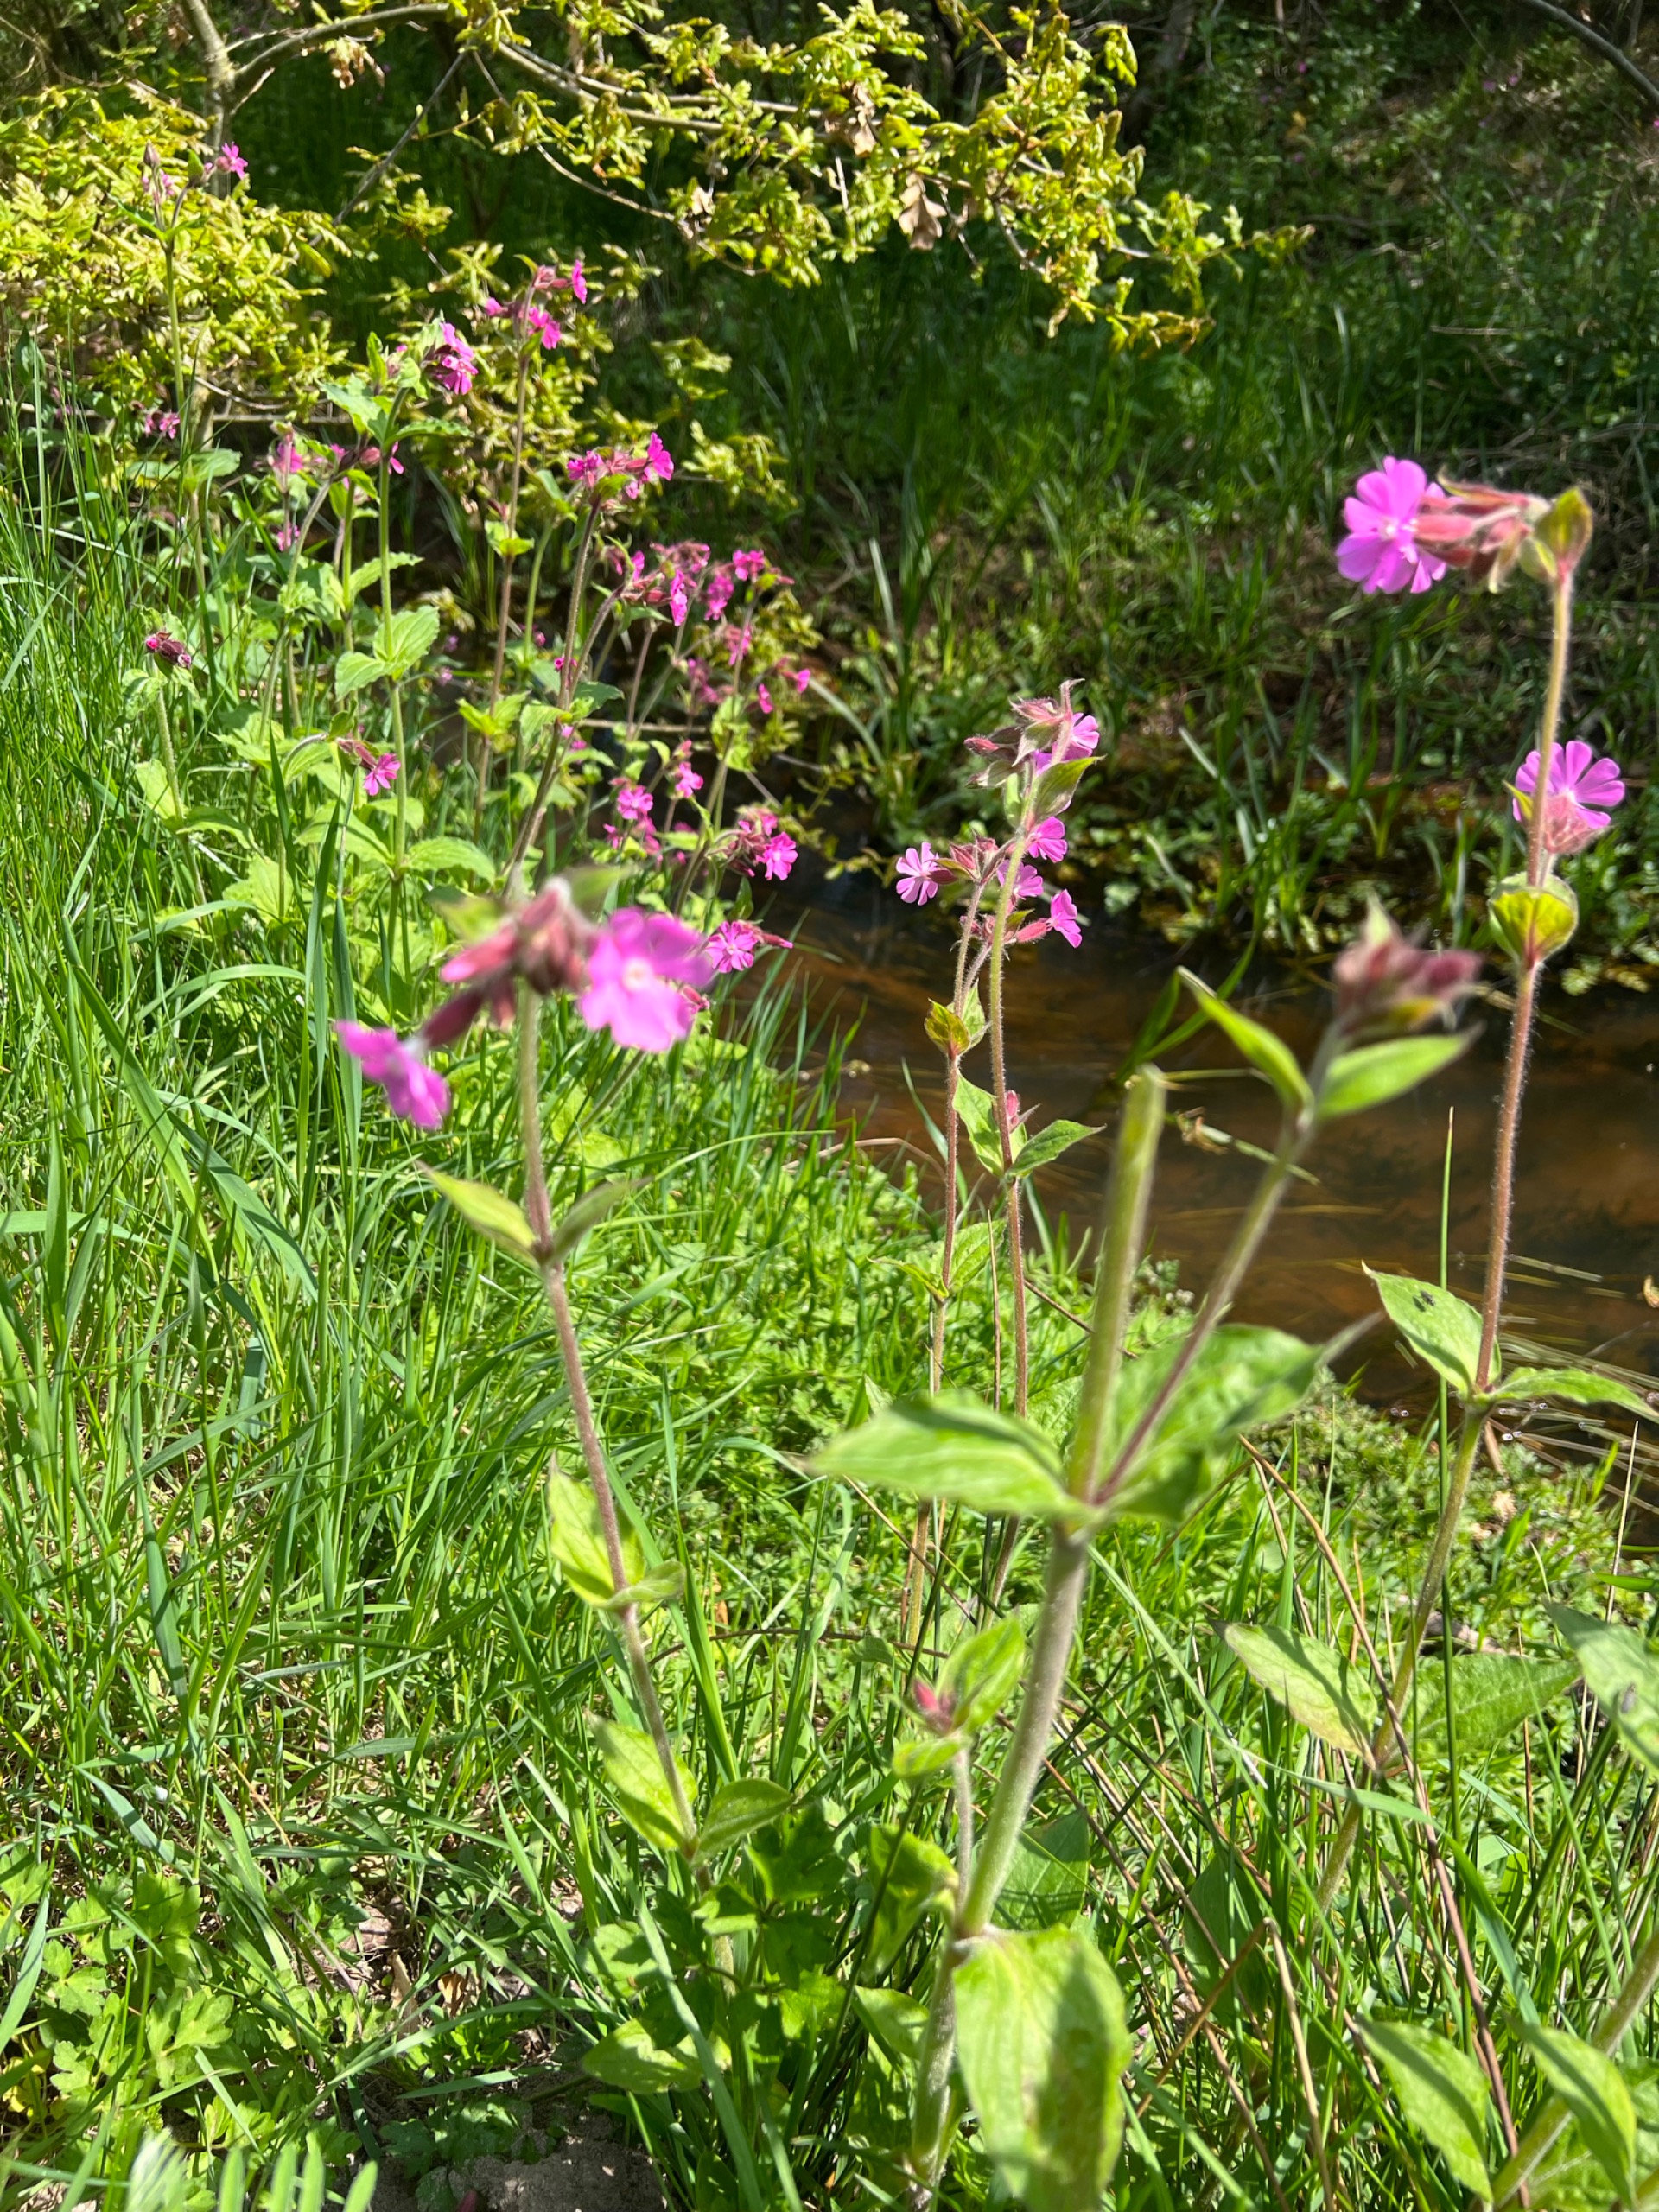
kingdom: Plantae
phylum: Tracheophyta
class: Magnoliopsida
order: Caryophyllales
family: Caryophyllaceae
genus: Silene
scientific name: Silene dioica
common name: Dagpragtstjerne
